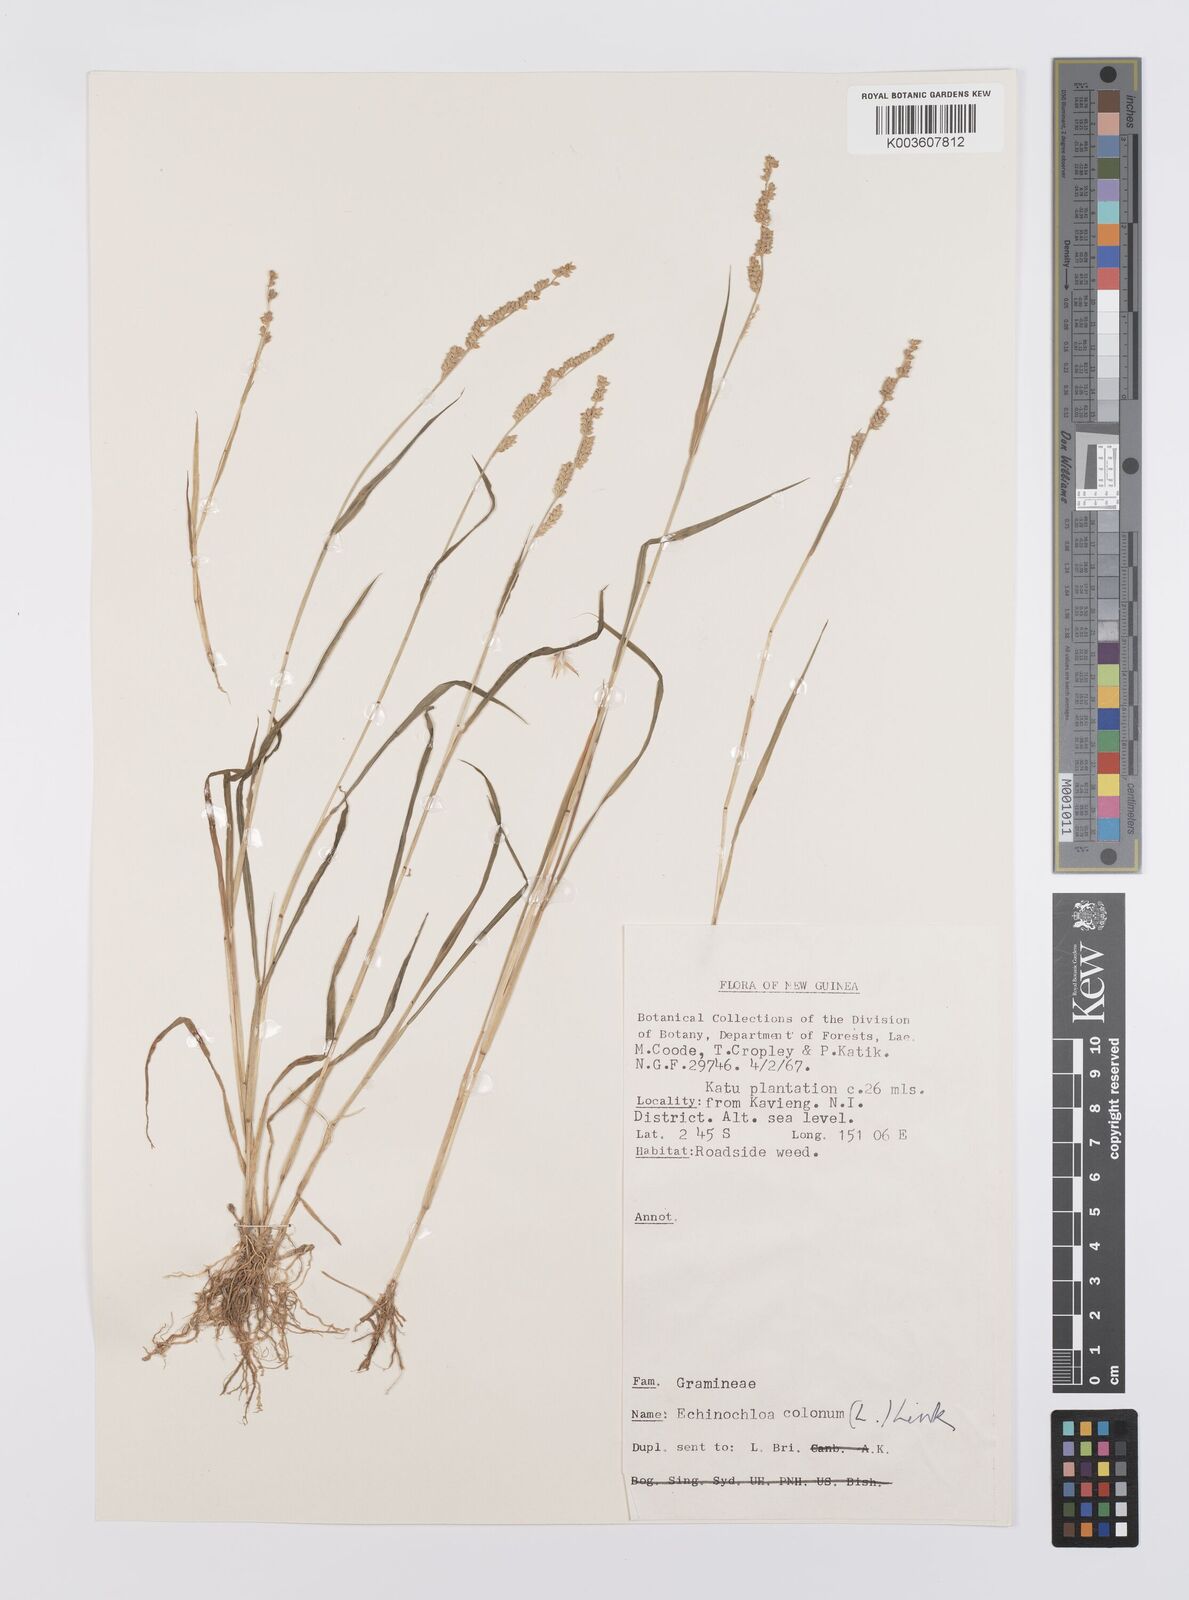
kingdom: Plantae
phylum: Tracheophyta
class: Liliopsida
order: Poales
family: Poaceae
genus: Echinochloa
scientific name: Echinochloa colonum
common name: Jungle rice
